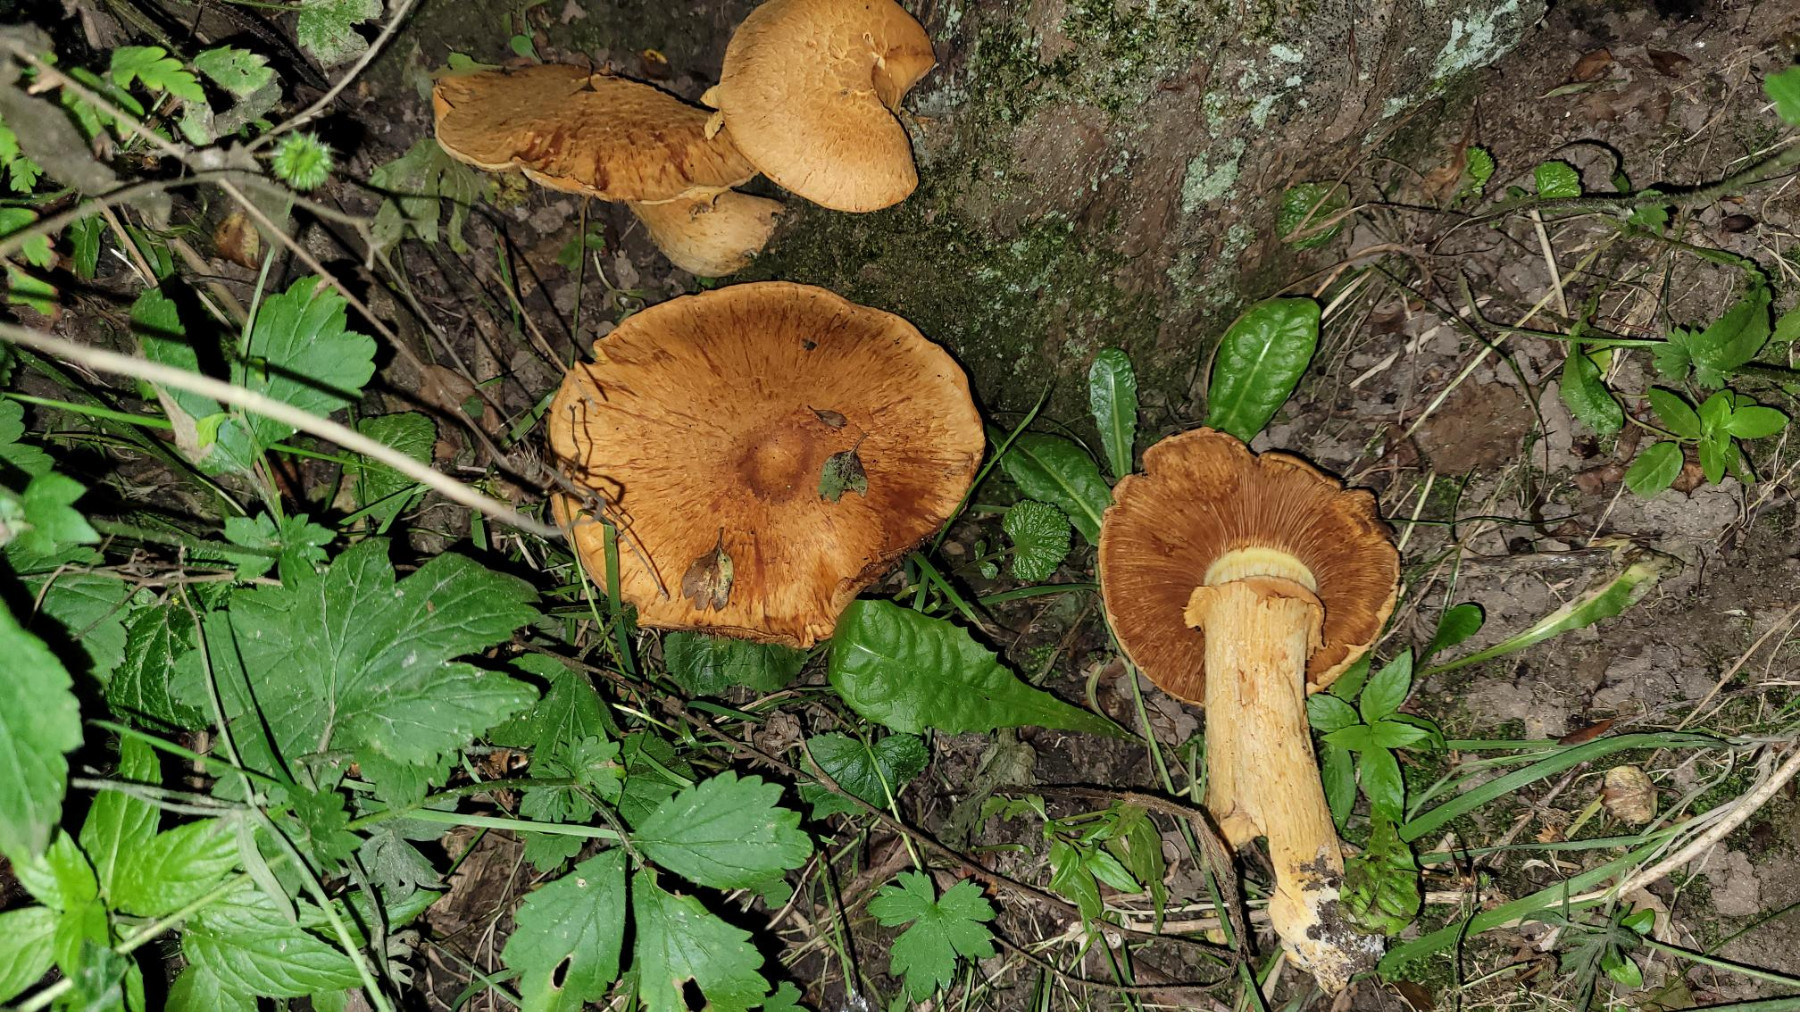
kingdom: Fungi
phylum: Basidiomycota
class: Agaricomycetes
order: Agaricales
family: Hymenogastraceae
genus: Gymnopilus
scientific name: Gymnopilus spectabilis
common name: fibret flammehat
